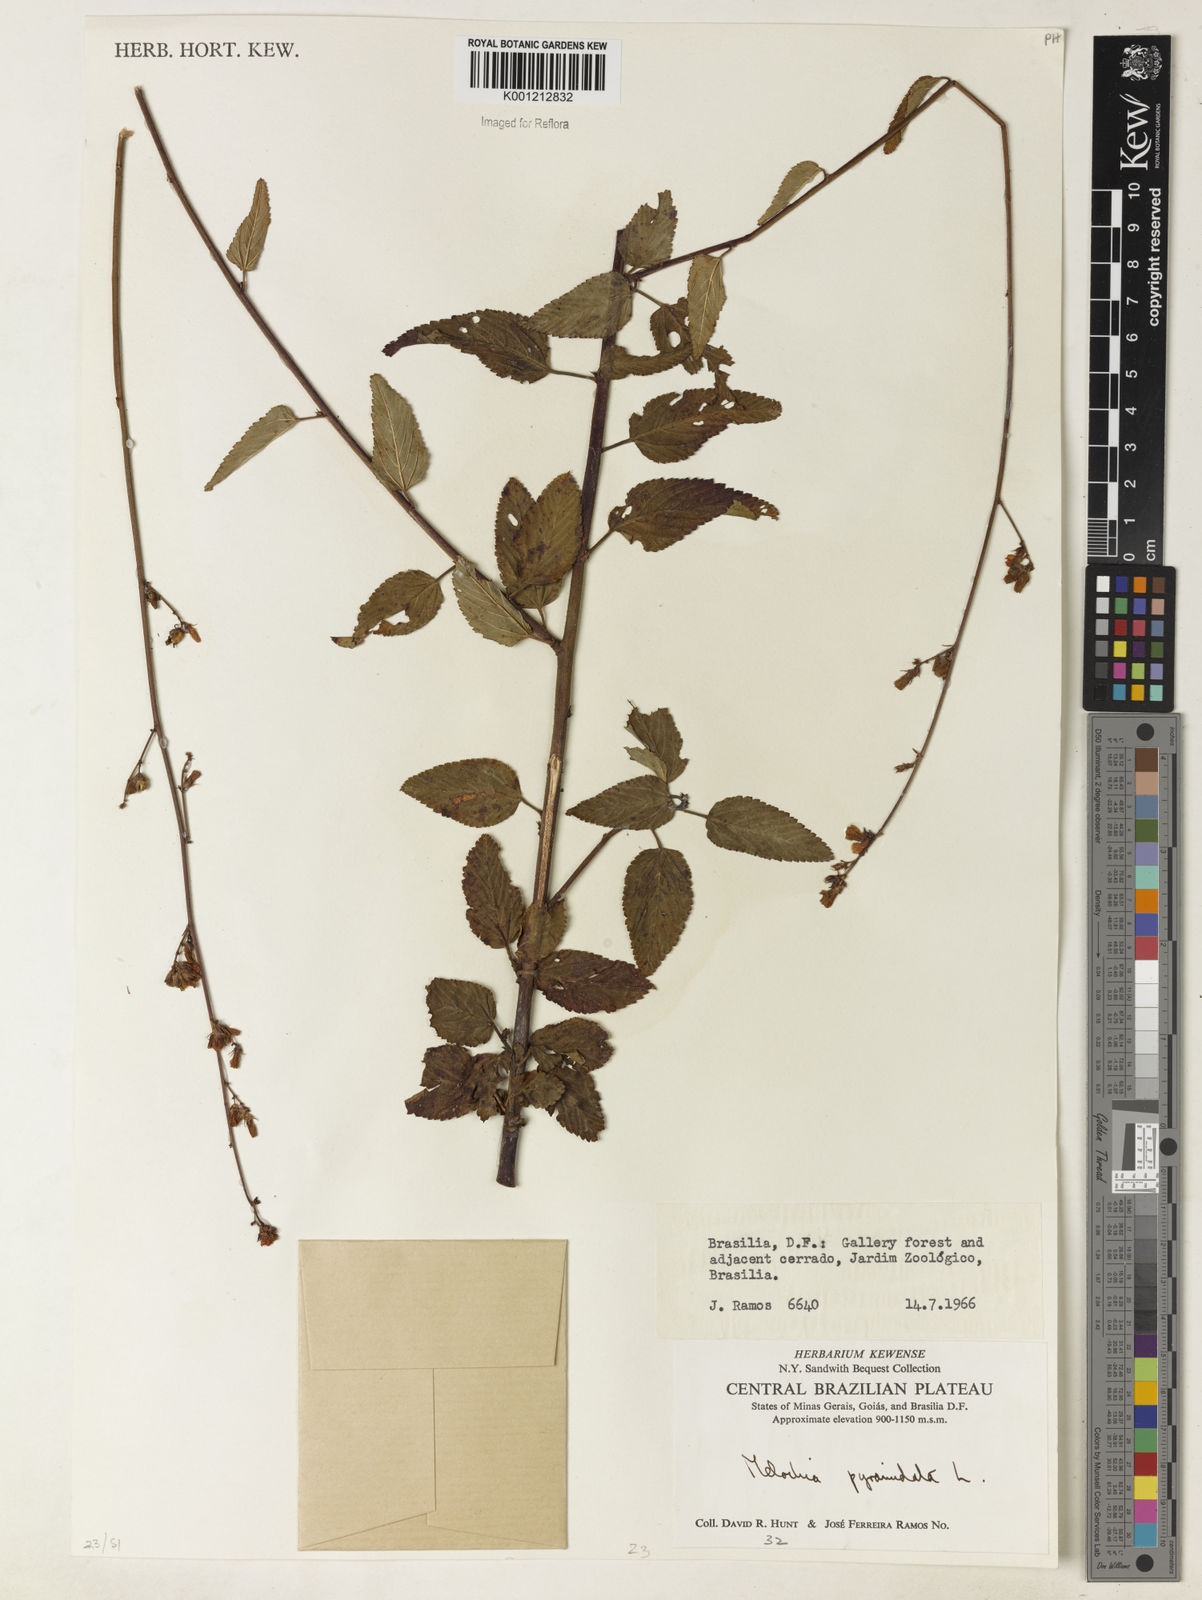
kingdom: Plantae
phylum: Tracheophyta
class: Magnoliopsida
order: Malvales
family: Malvaceae
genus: Melochia
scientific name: Melochia pyramidata
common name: Pyramidflower
